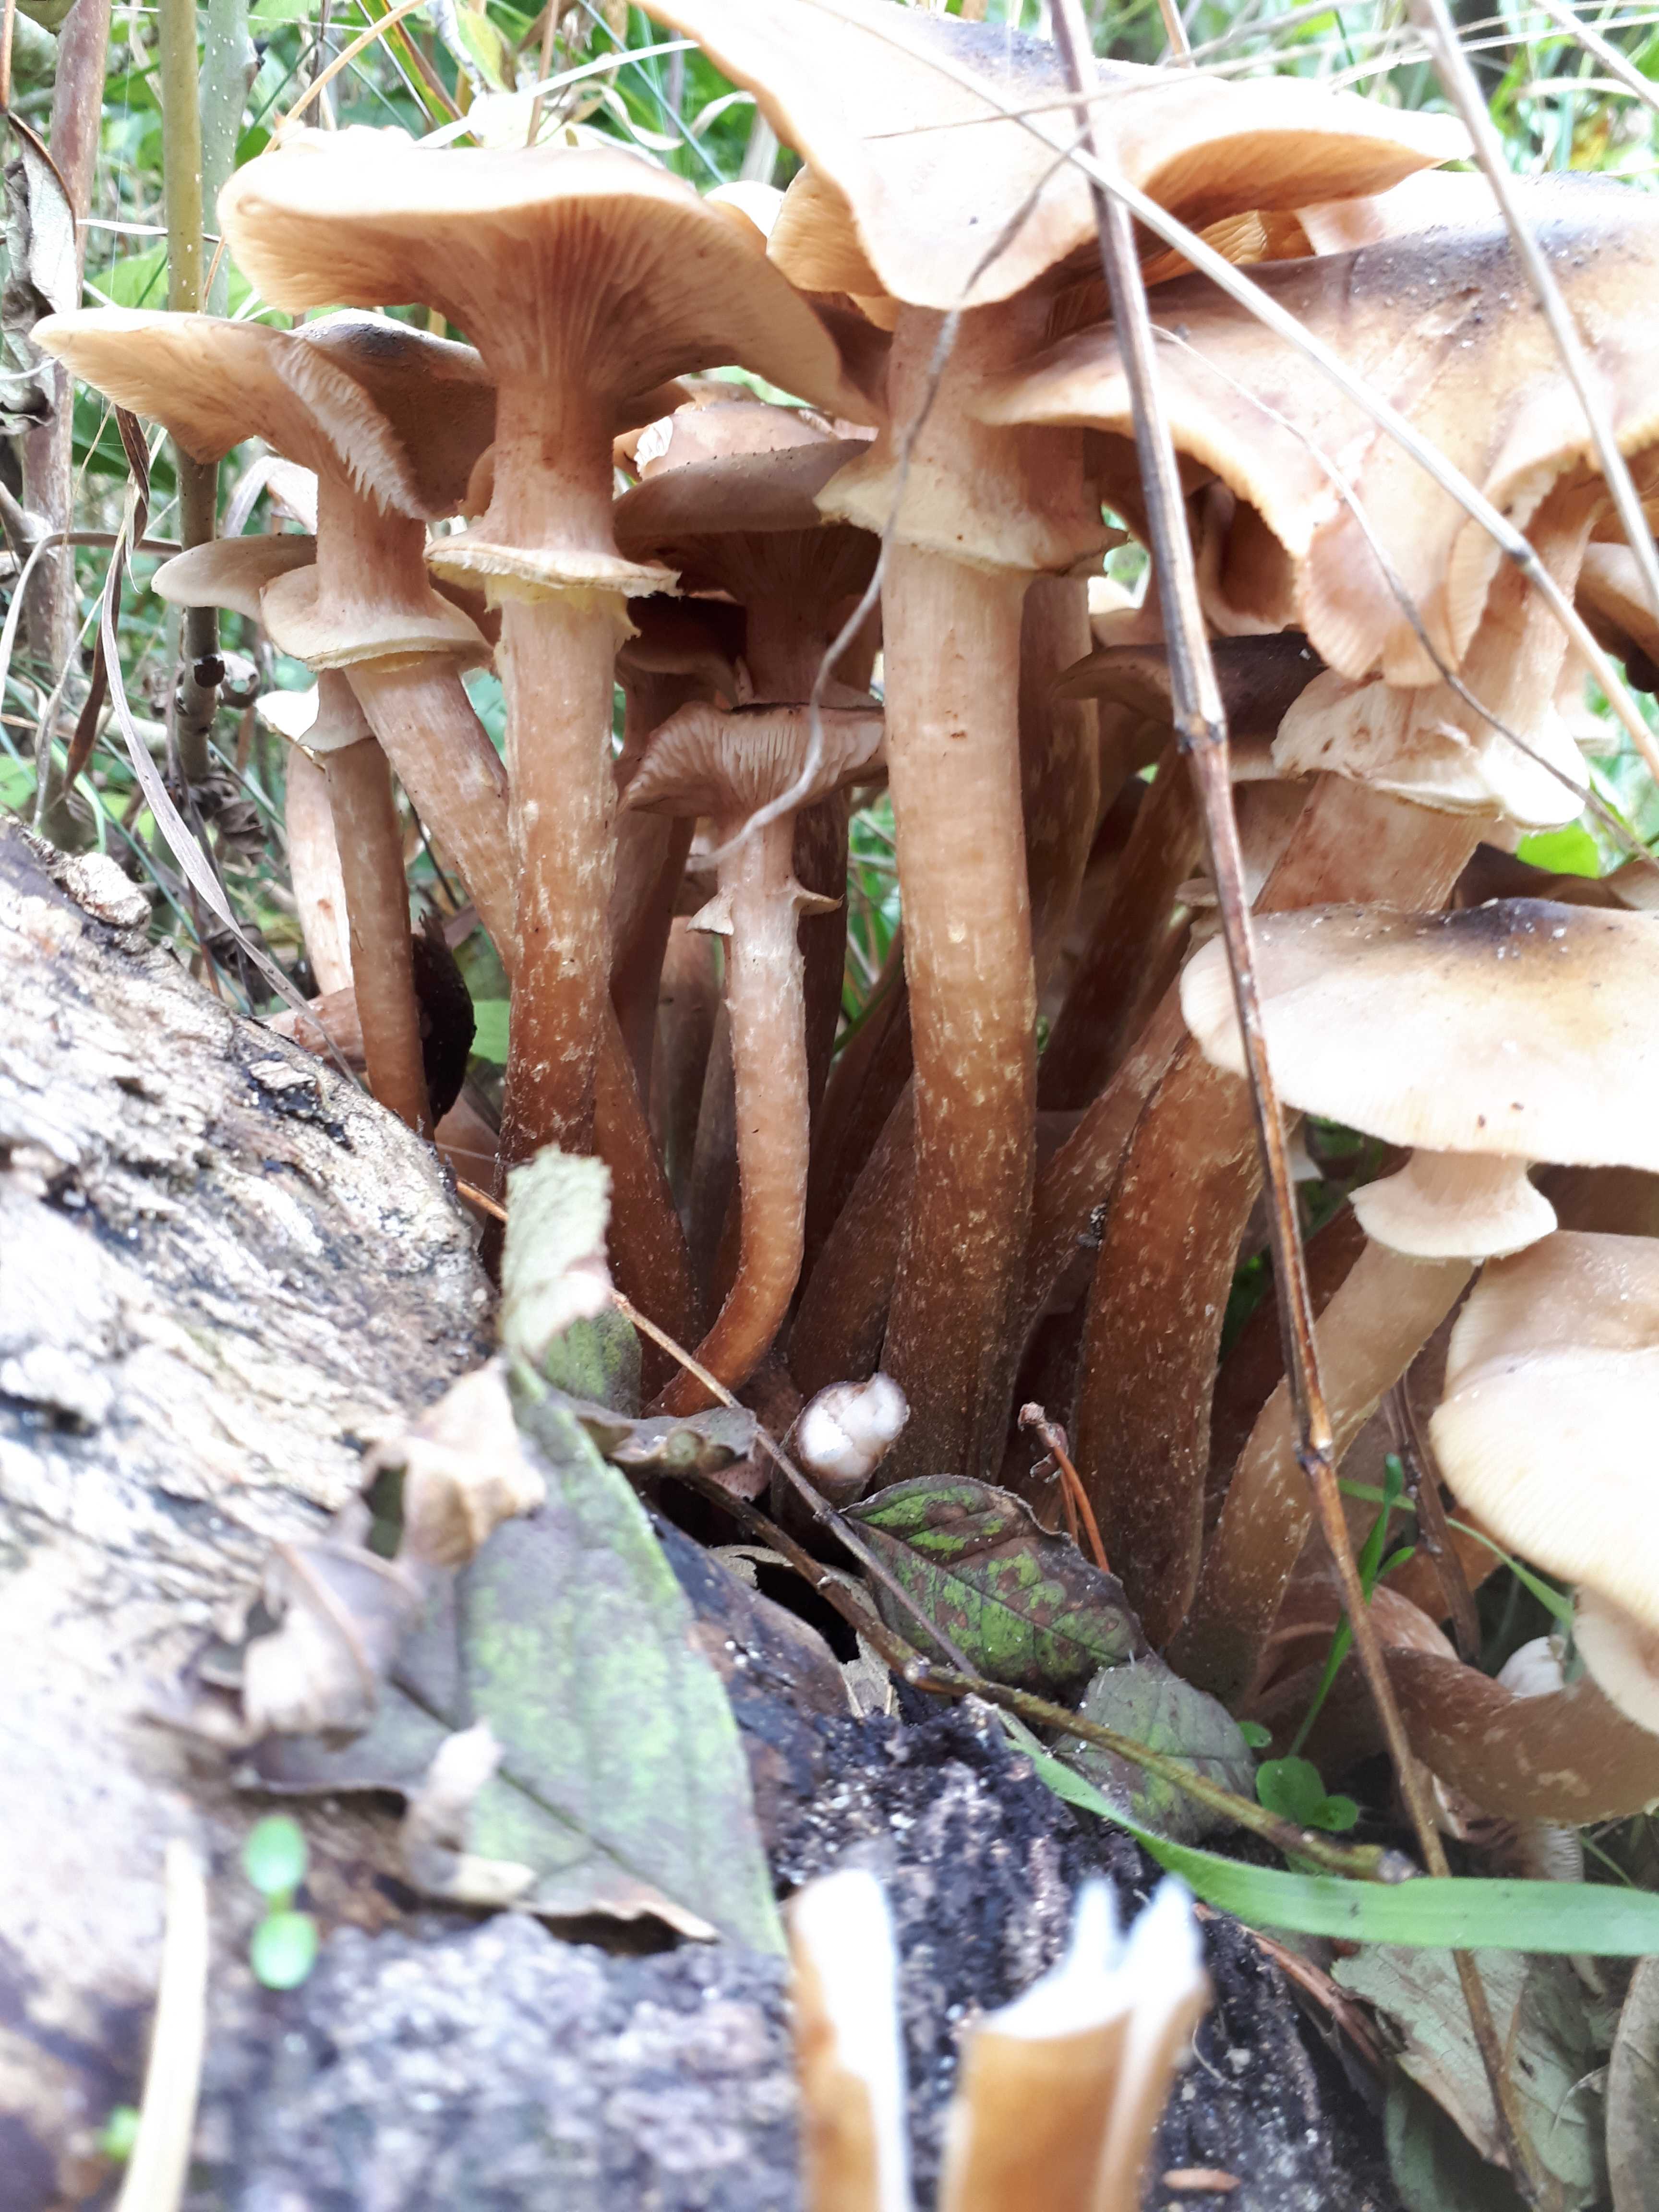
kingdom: Fungi
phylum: Basidiomycota
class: Agaricomycetes
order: Agaricales
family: Physalacriaceae
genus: Armillaria
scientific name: Armillaria mellea
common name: ægte honningsvamp
